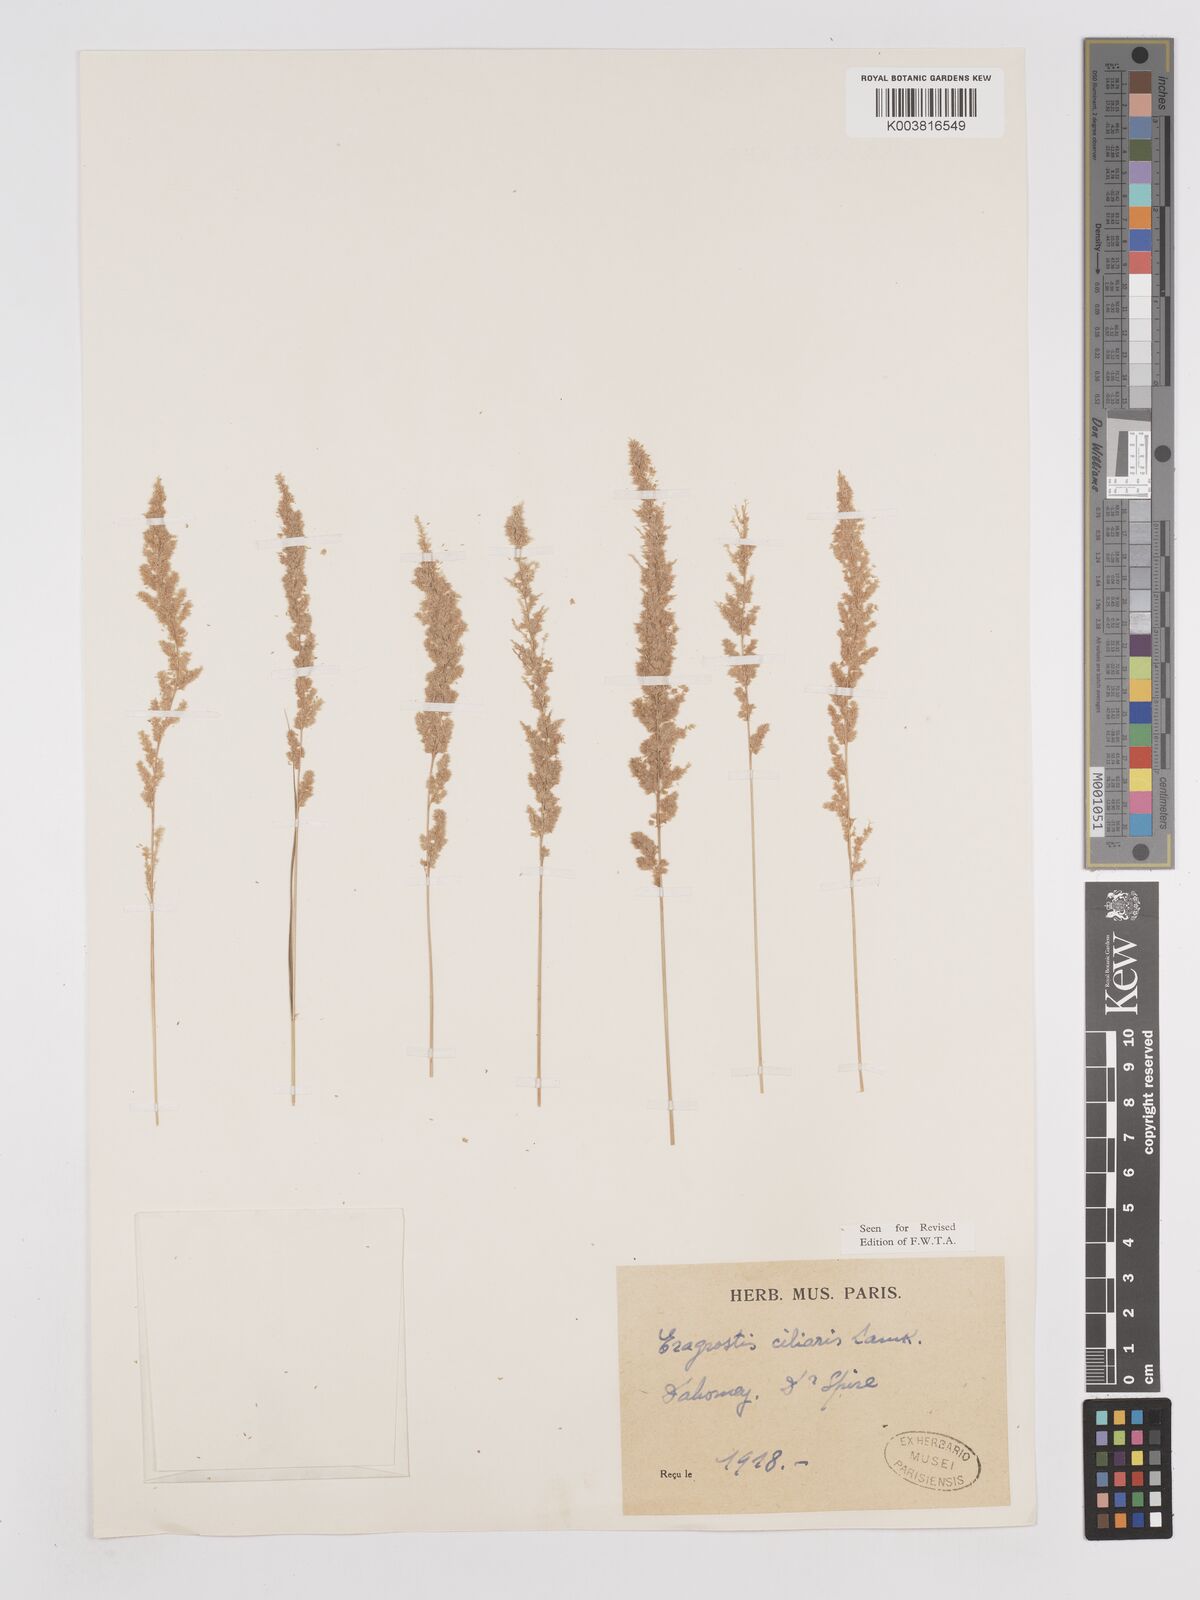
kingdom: Plantae
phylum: Tracheophyta
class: Liliopsida
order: Poales
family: Poaceae
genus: Eragrostis
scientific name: Eragrostis ciliaris
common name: Gophertail lovegrass
